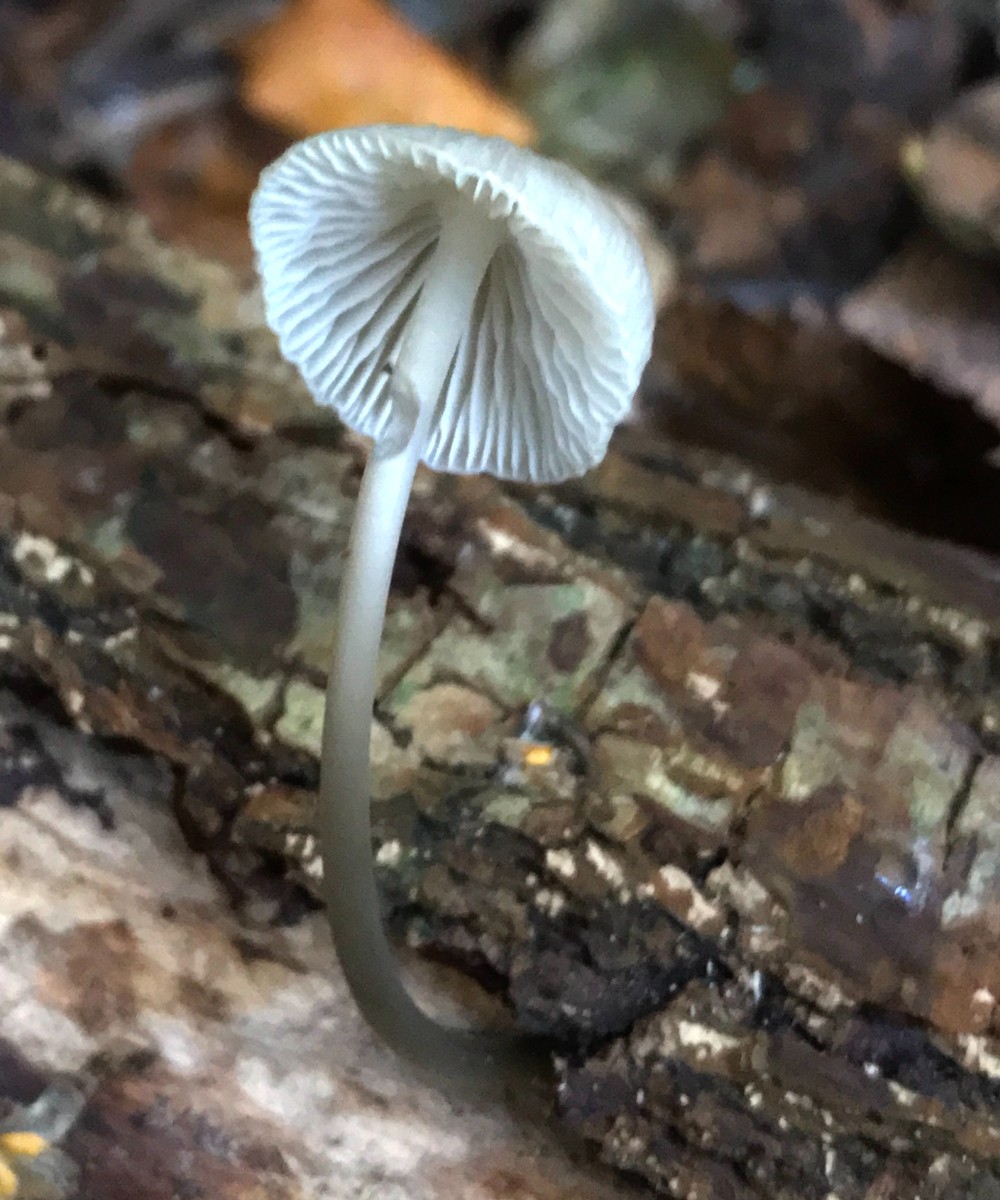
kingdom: Fungi
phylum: Basidiomycota
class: Agaricomycetes
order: Agaricales
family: Mycenaceae
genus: Mycena
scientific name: Mycena galericulata
